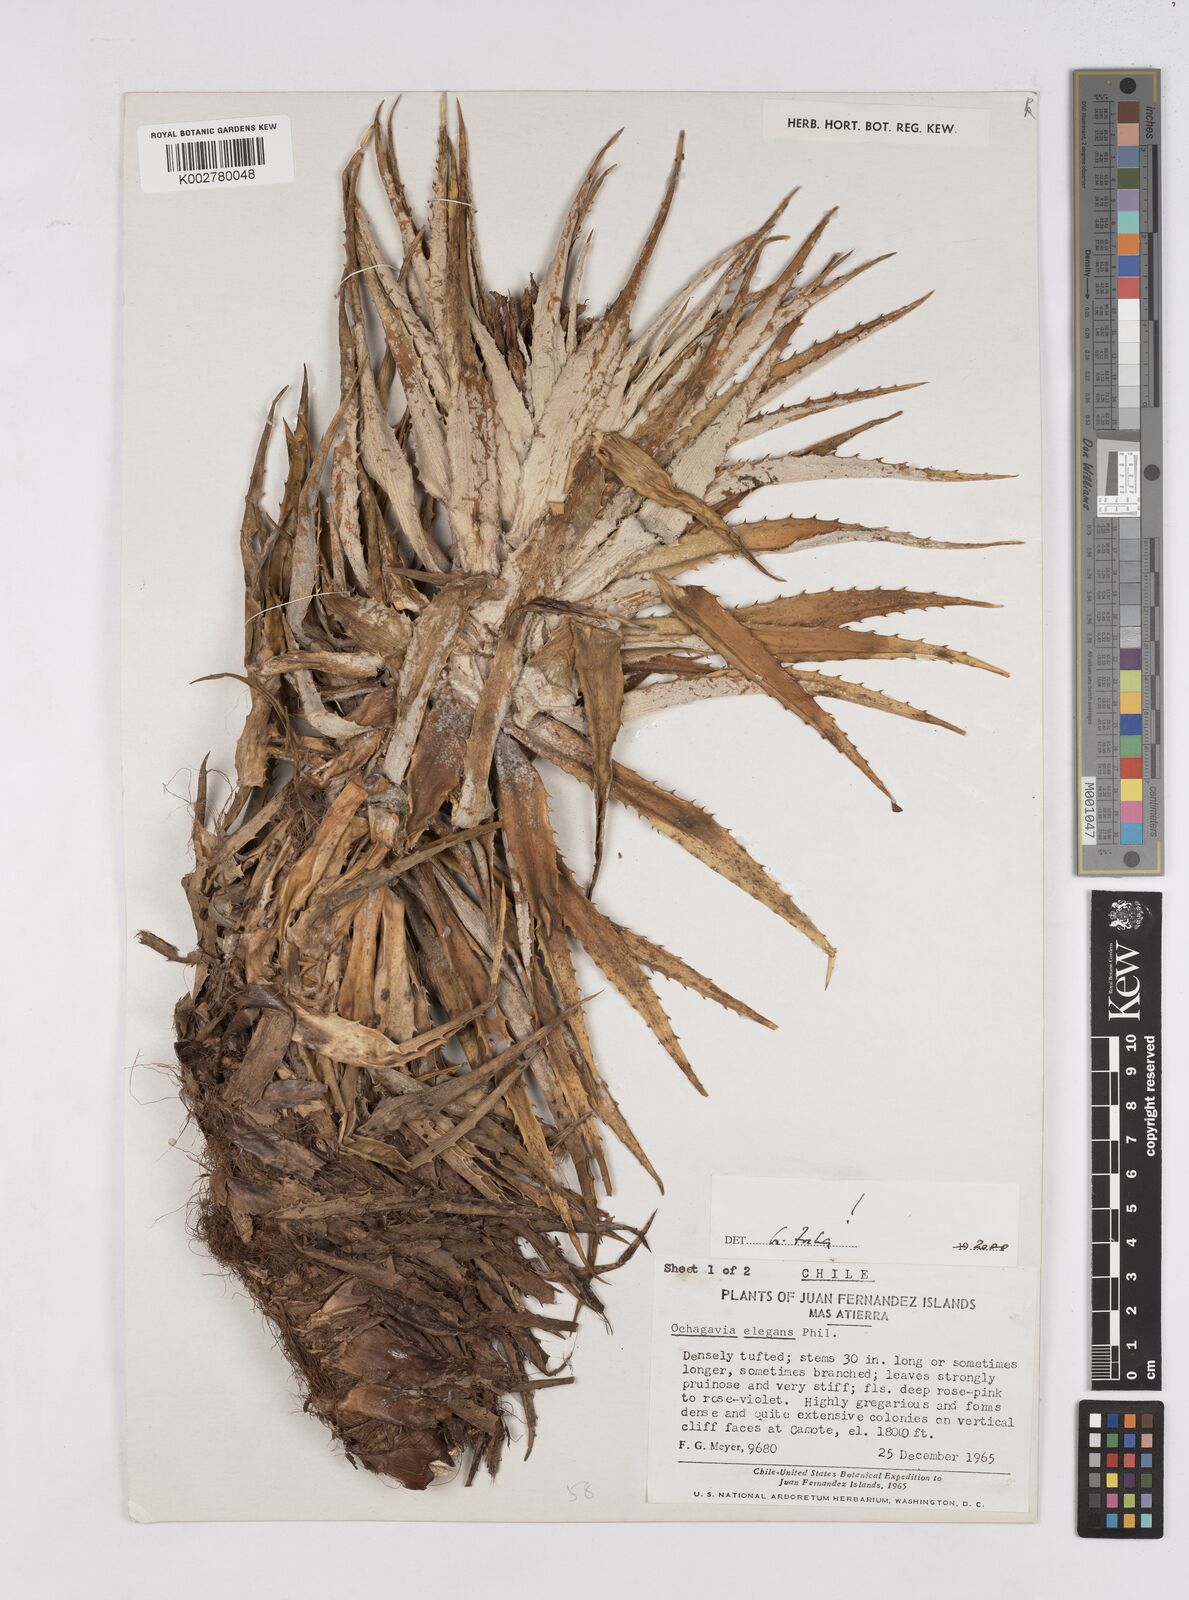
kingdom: Plantae
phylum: Tracheophyta
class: Liliopsida
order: Poales
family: Bromeliaceae
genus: Ochagavia
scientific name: Ochagavia elegans
